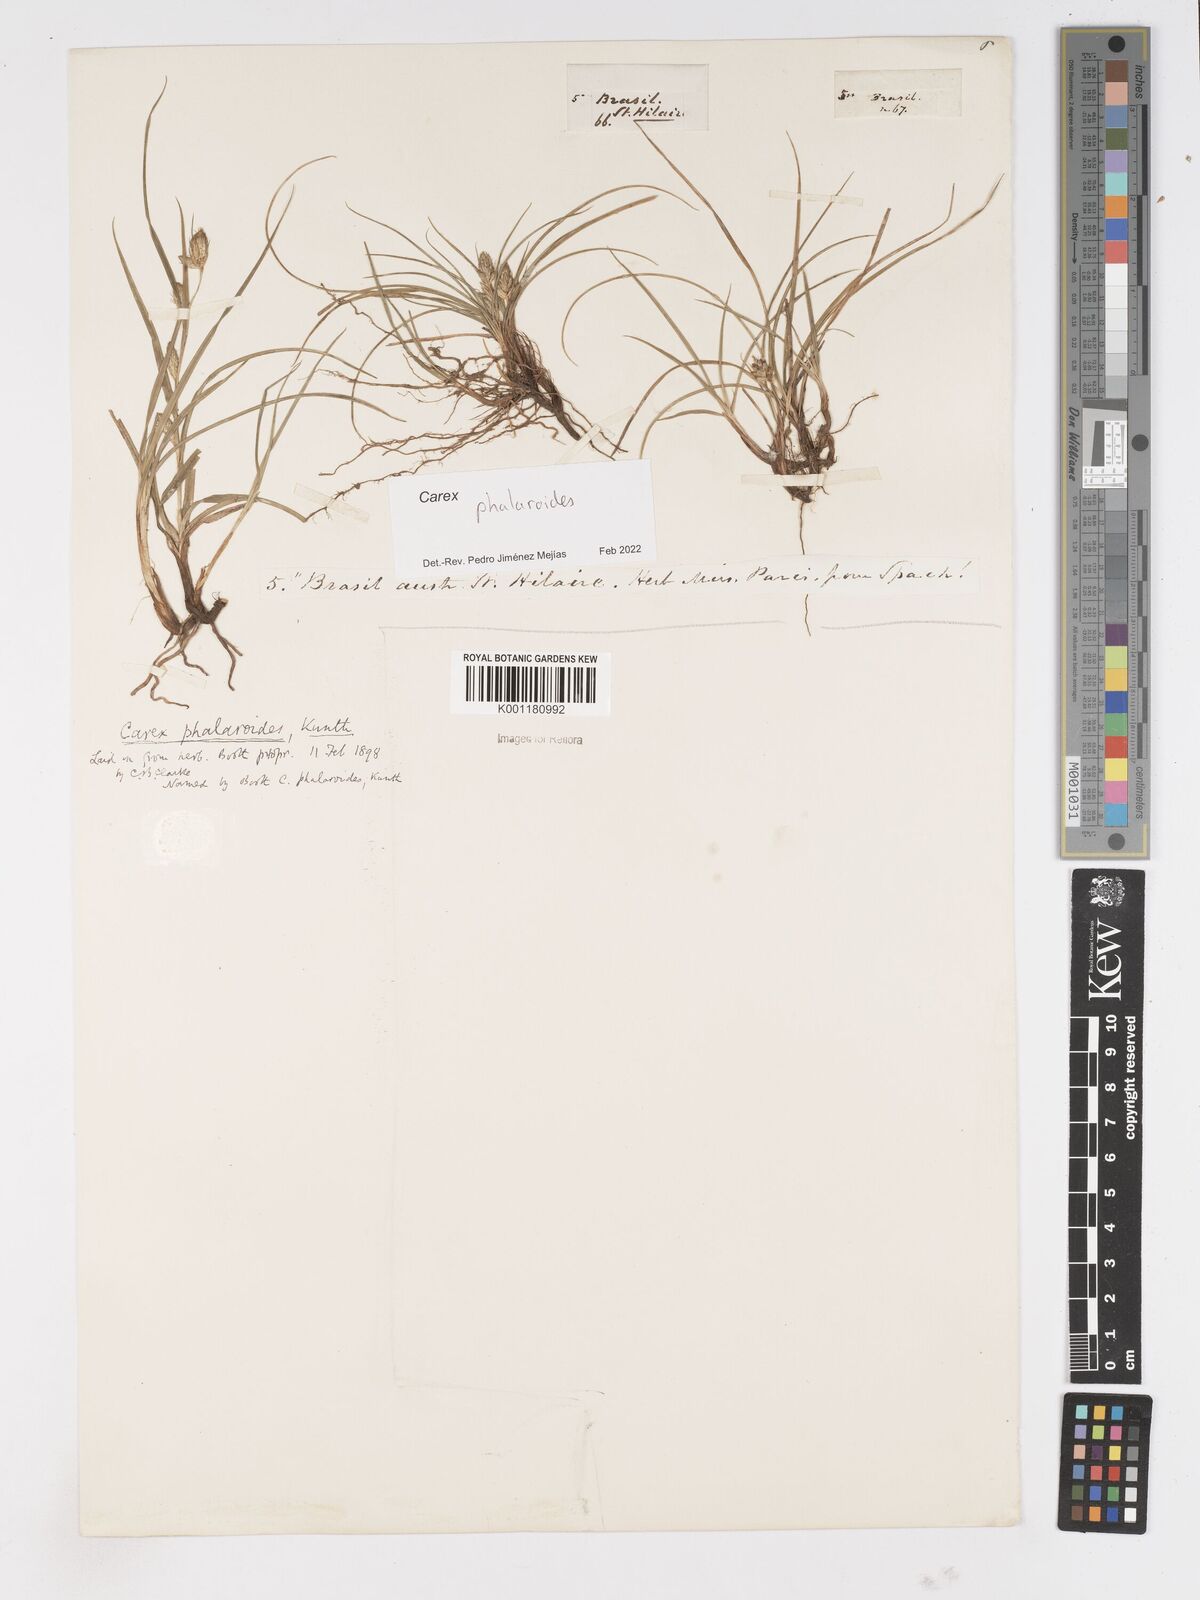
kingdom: Plantae
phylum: Tracheophyta
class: Liliopsida
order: Poales
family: Cyperaceae
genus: Carex
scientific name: Carex phalaroides
